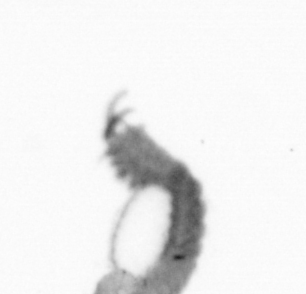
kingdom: Animalia
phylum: Annelida
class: Polychaeta
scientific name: Polychaeta
